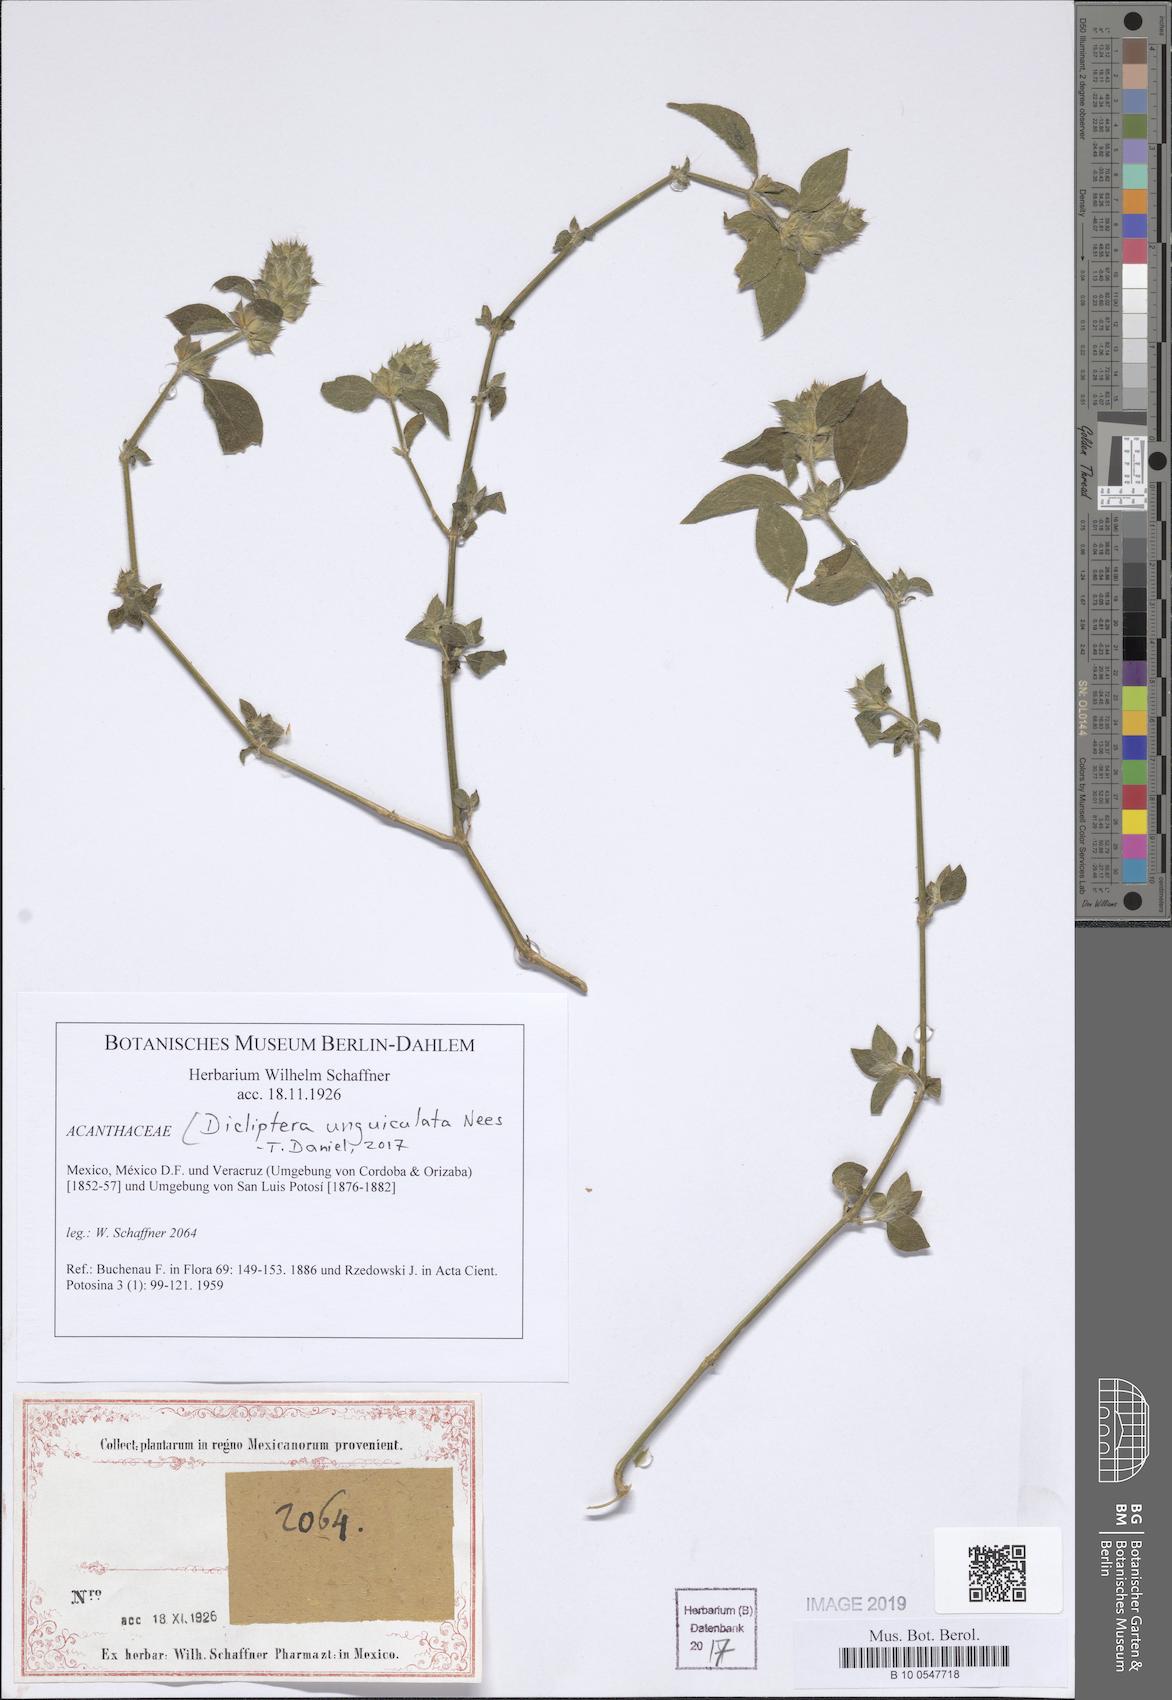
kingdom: Plantae
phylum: Tracheophyta
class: Magnoliopsida
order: Lamiales
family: Acanthaceae
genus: Dicliptera
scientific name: Dicliptera unguiculata
